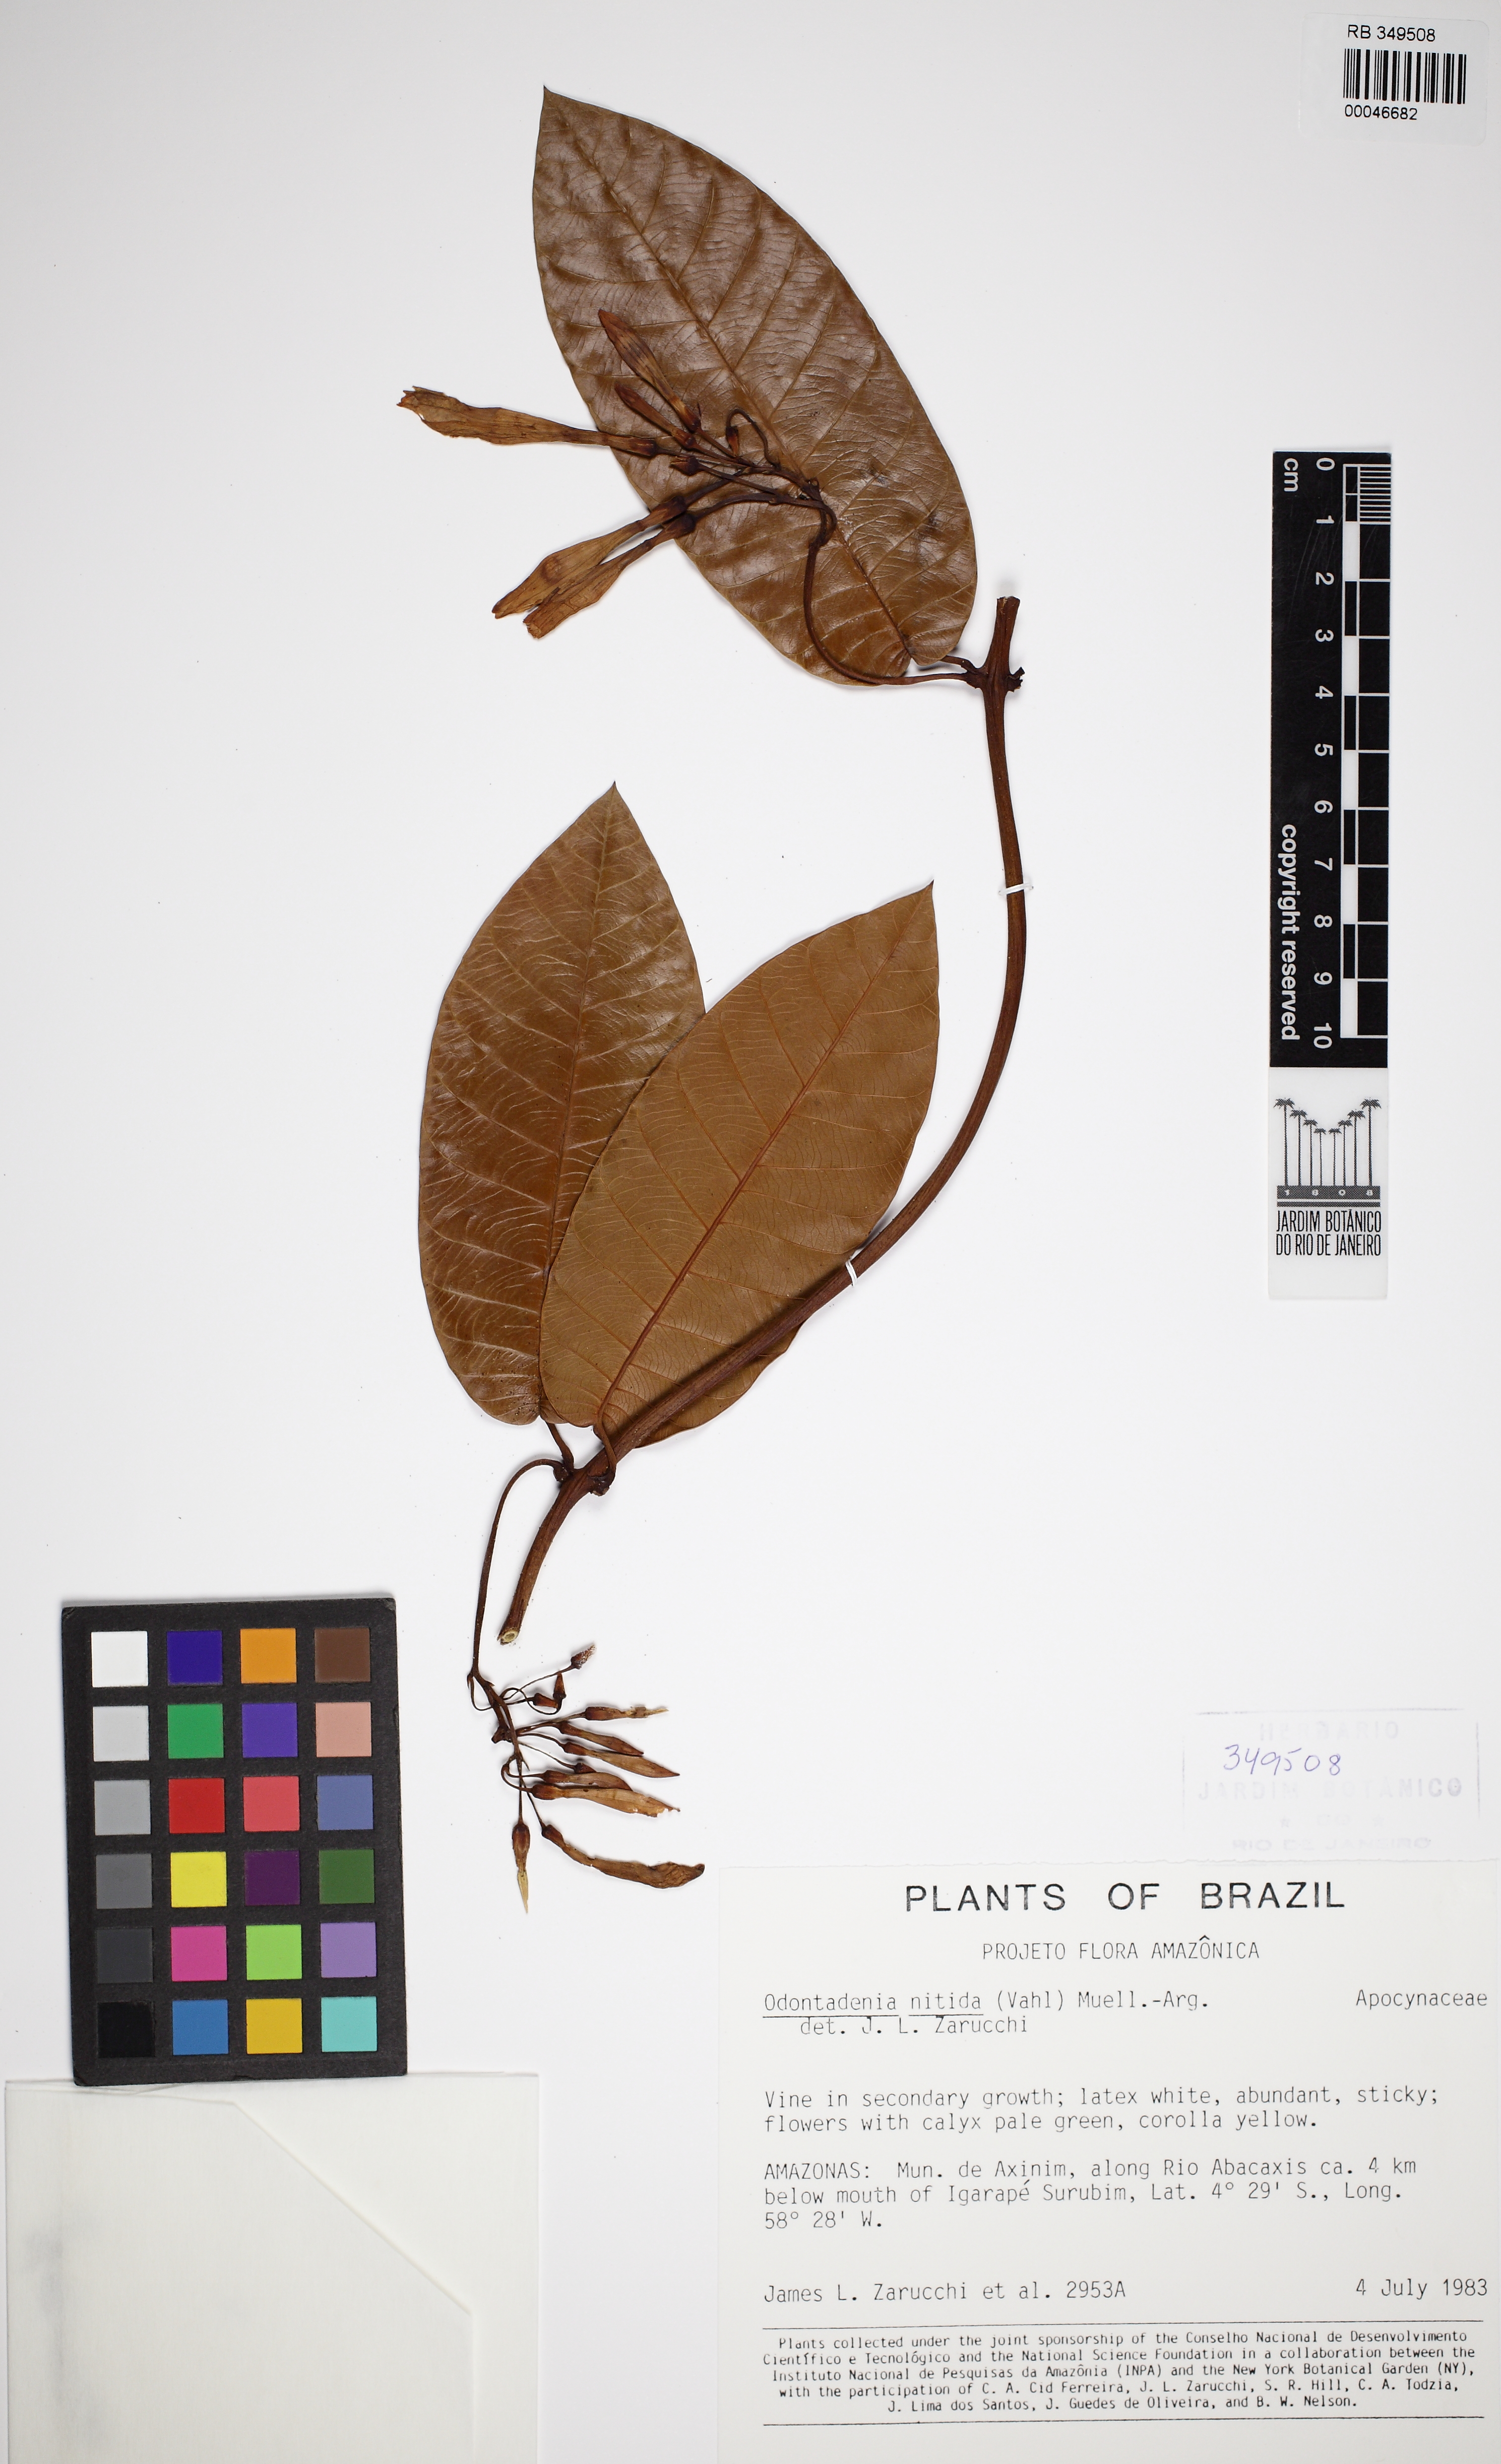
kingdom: Plantae
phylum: Tracheophyta
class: Magnoliopsida
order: Gentianales
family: Apocynaceae
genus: Odontadenia
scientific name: Odontadenia nitida
